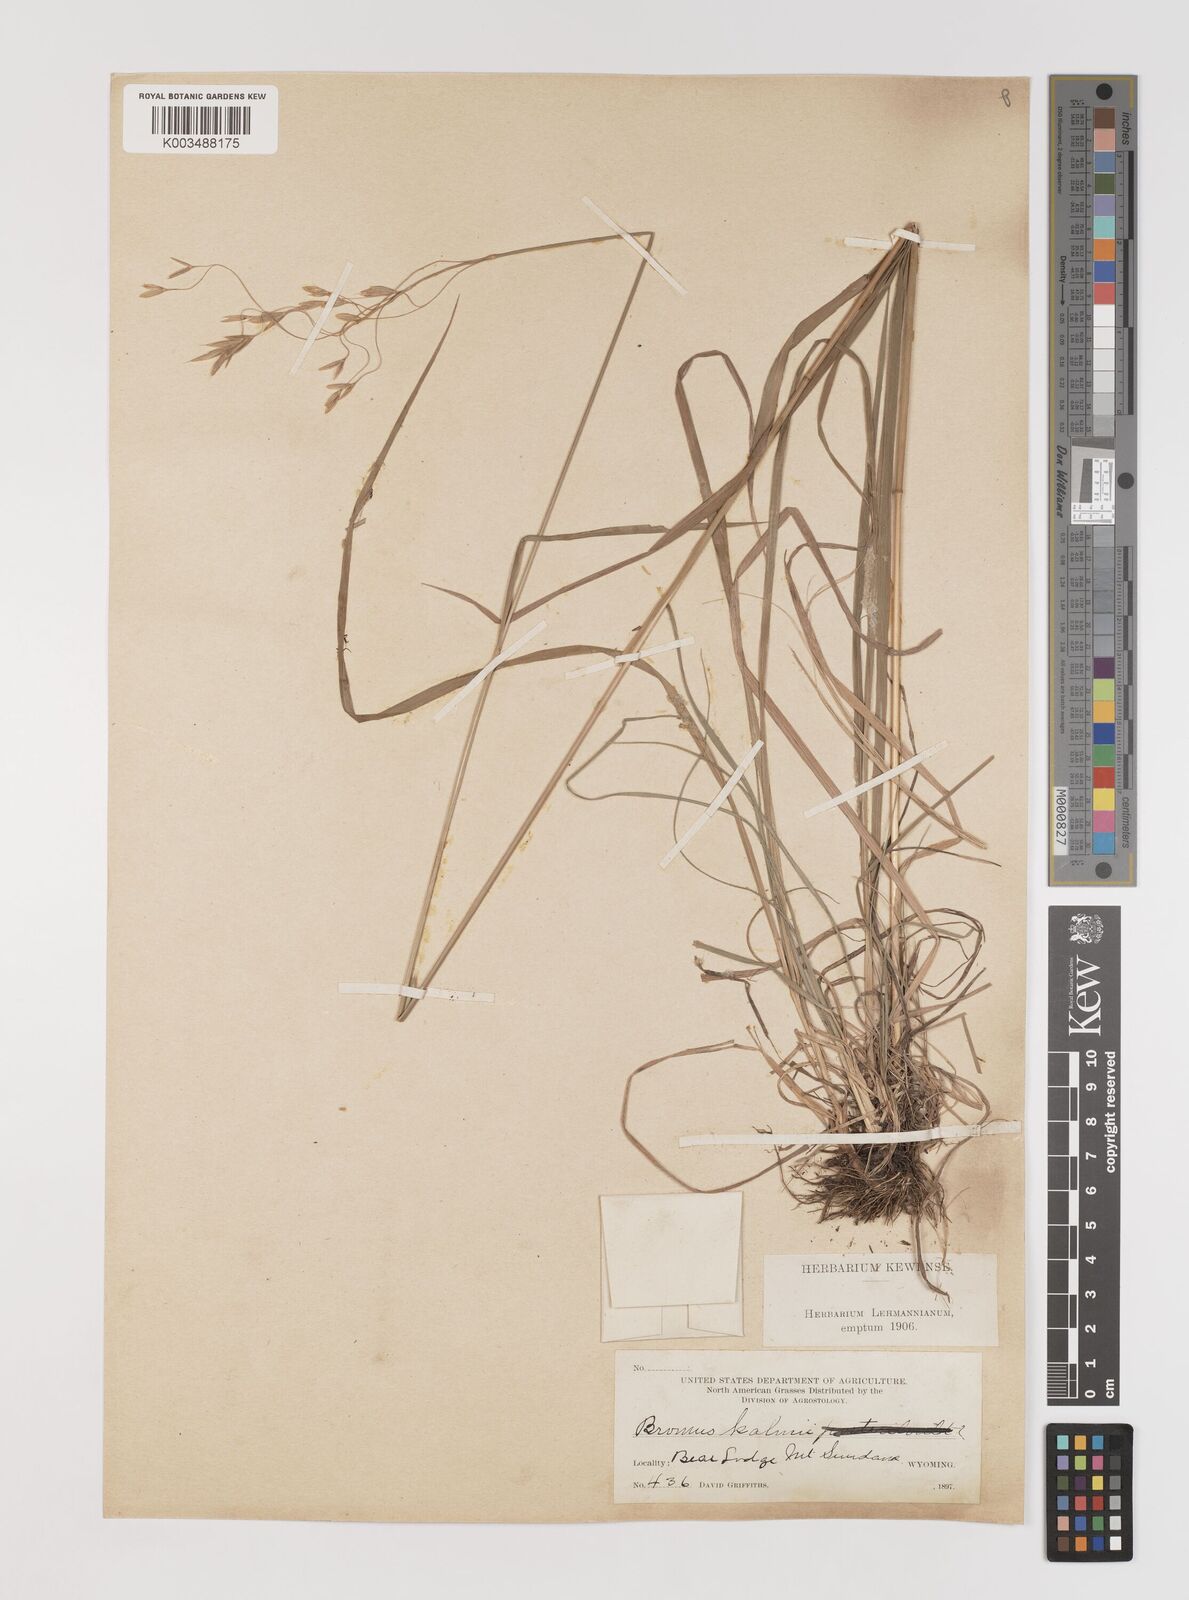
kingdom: Plantae
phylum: Tracheophyta
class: Liliopsida
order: Poales
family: Poaceae
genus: Bromus
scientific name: Bromus kalmii
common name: Kalm brome
